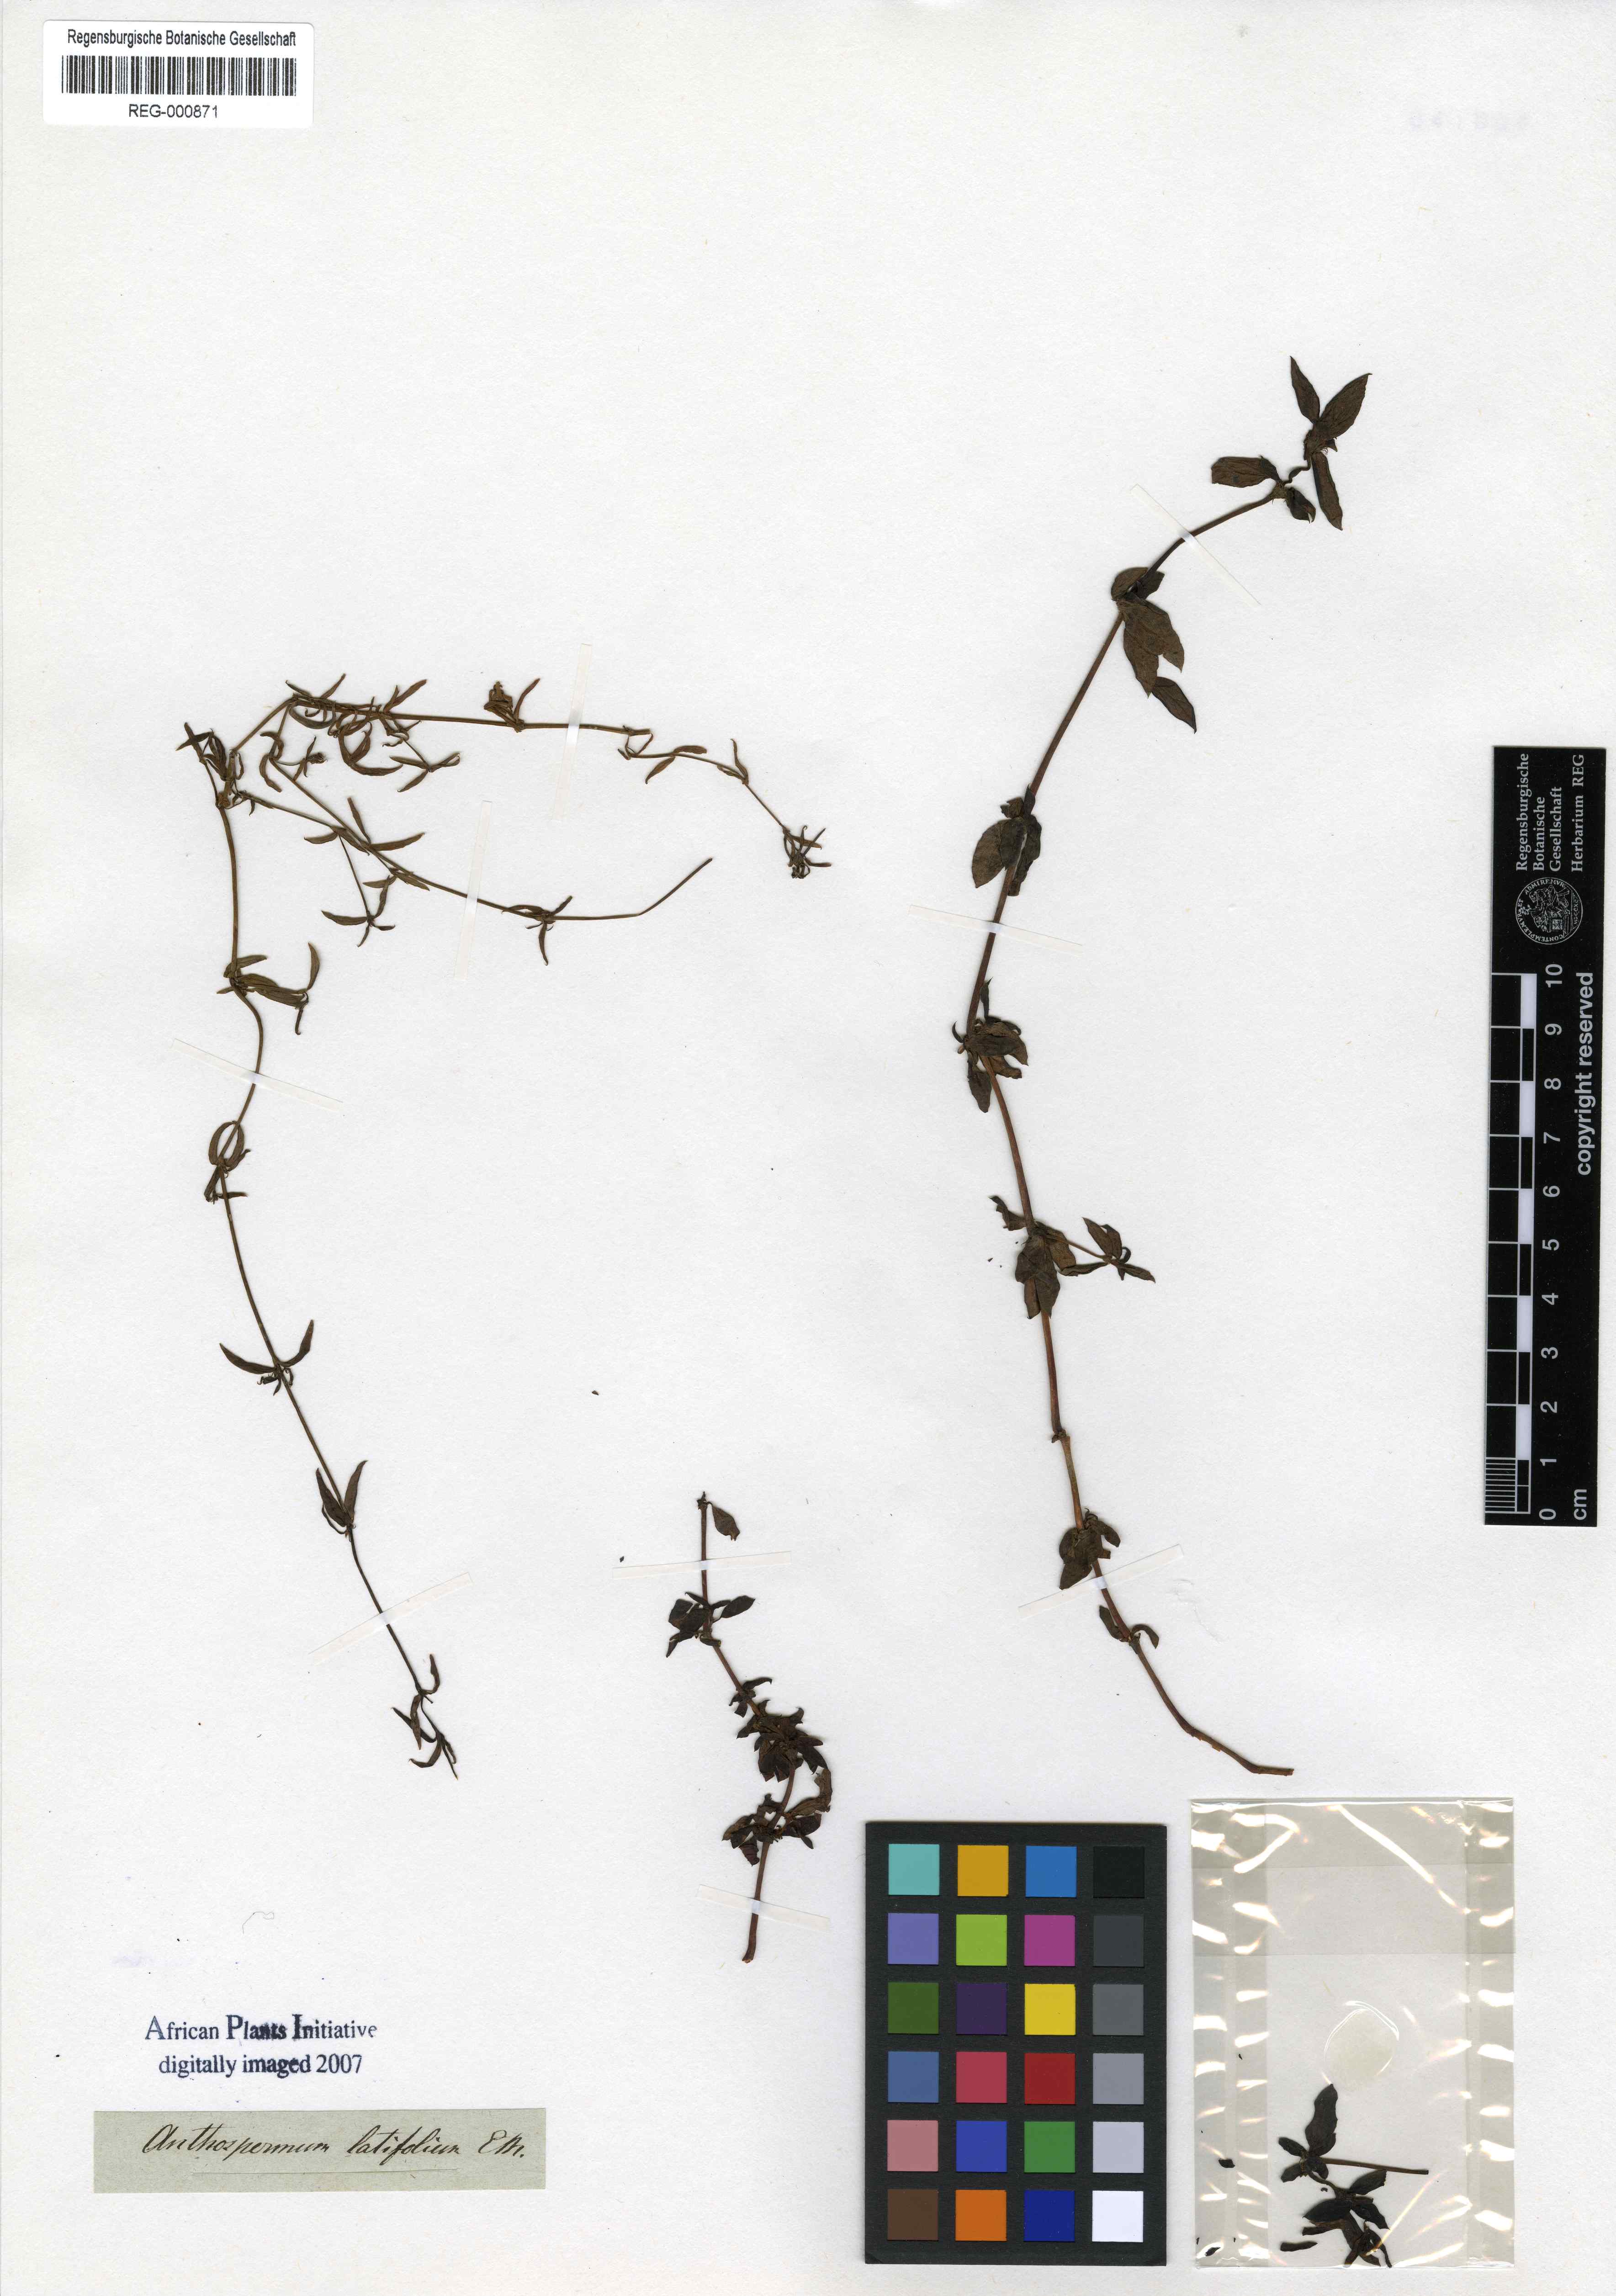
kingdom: Plantae
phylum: Tracheophyta
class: Magnoliopsida
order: Gentianales
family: Rubiaceae
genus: Anthospermum
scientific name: Anthospermum herbaceum
